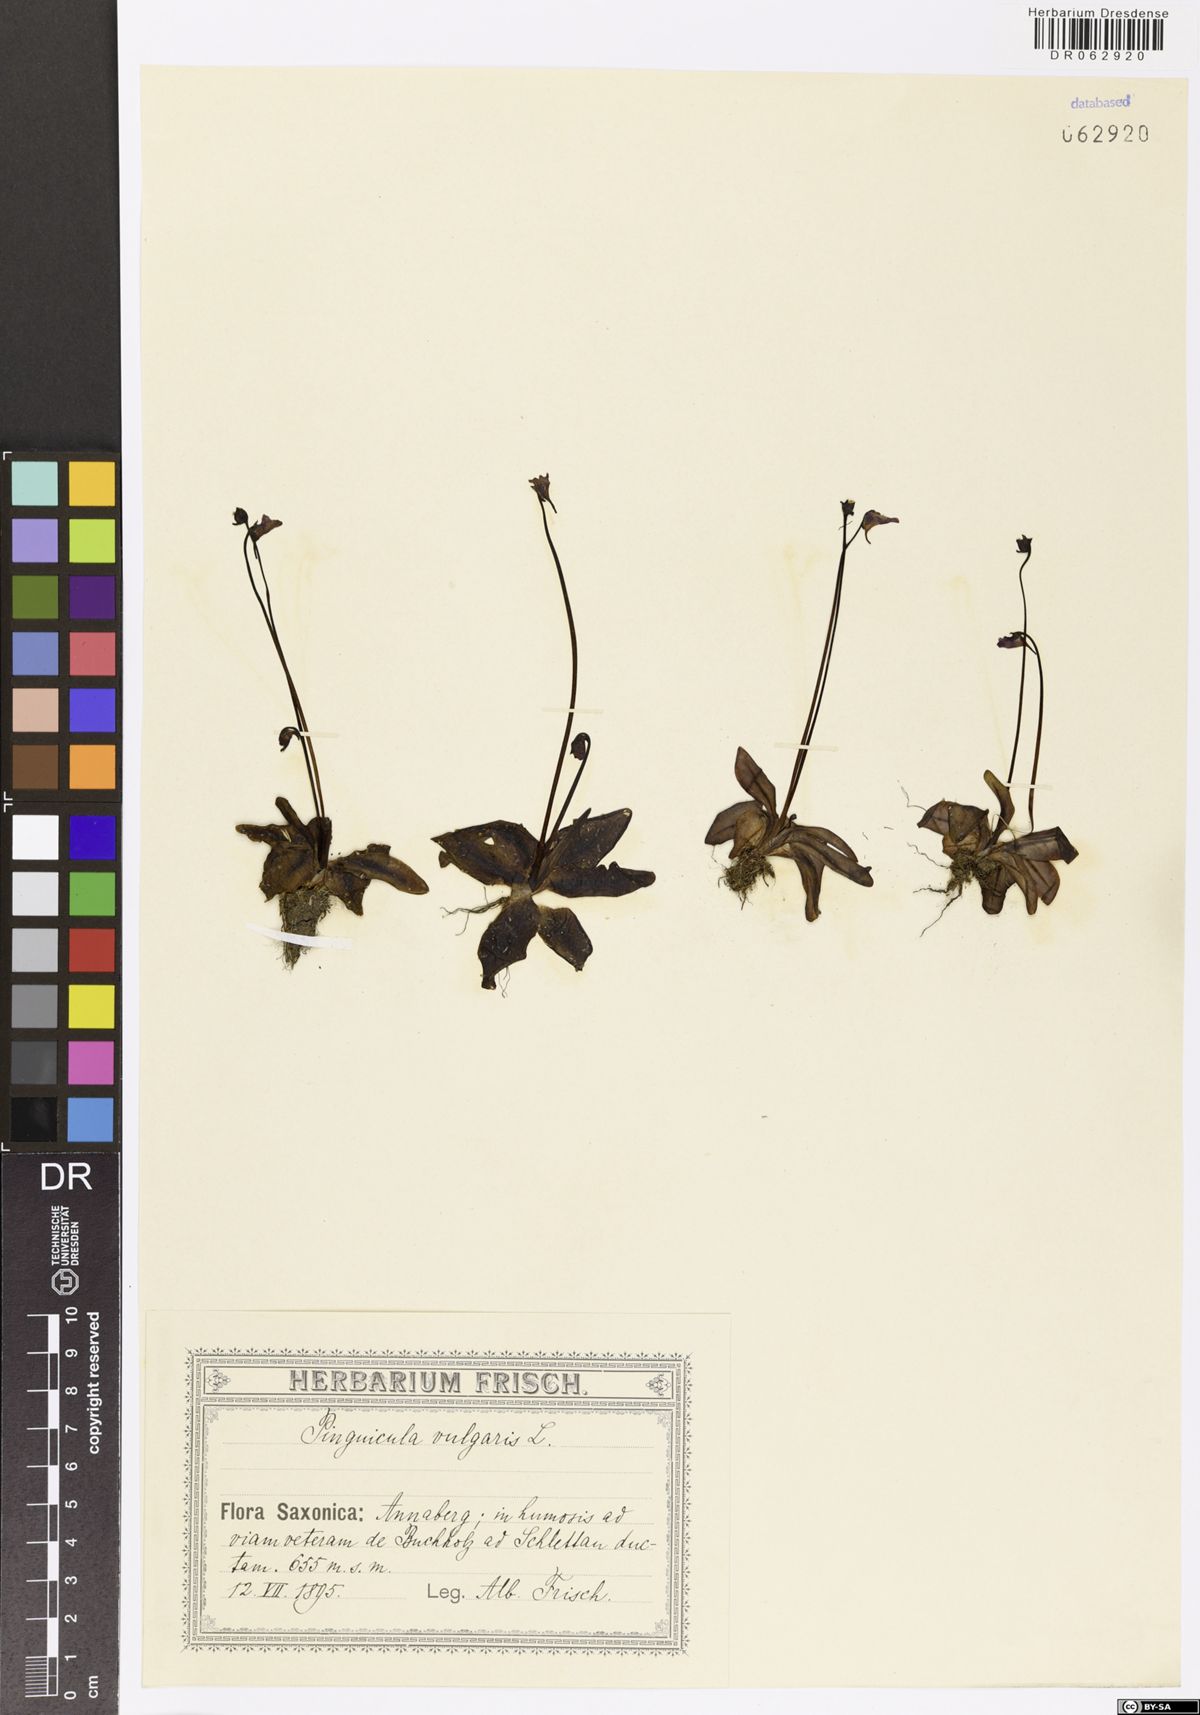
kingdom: Plantae
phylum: Tracheophyta
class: Magnoliopsida
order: Lamiales
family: Lentibulariaceae
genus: Pinguicula
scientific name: Pinguicula vulgaris
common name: Common butterwort
